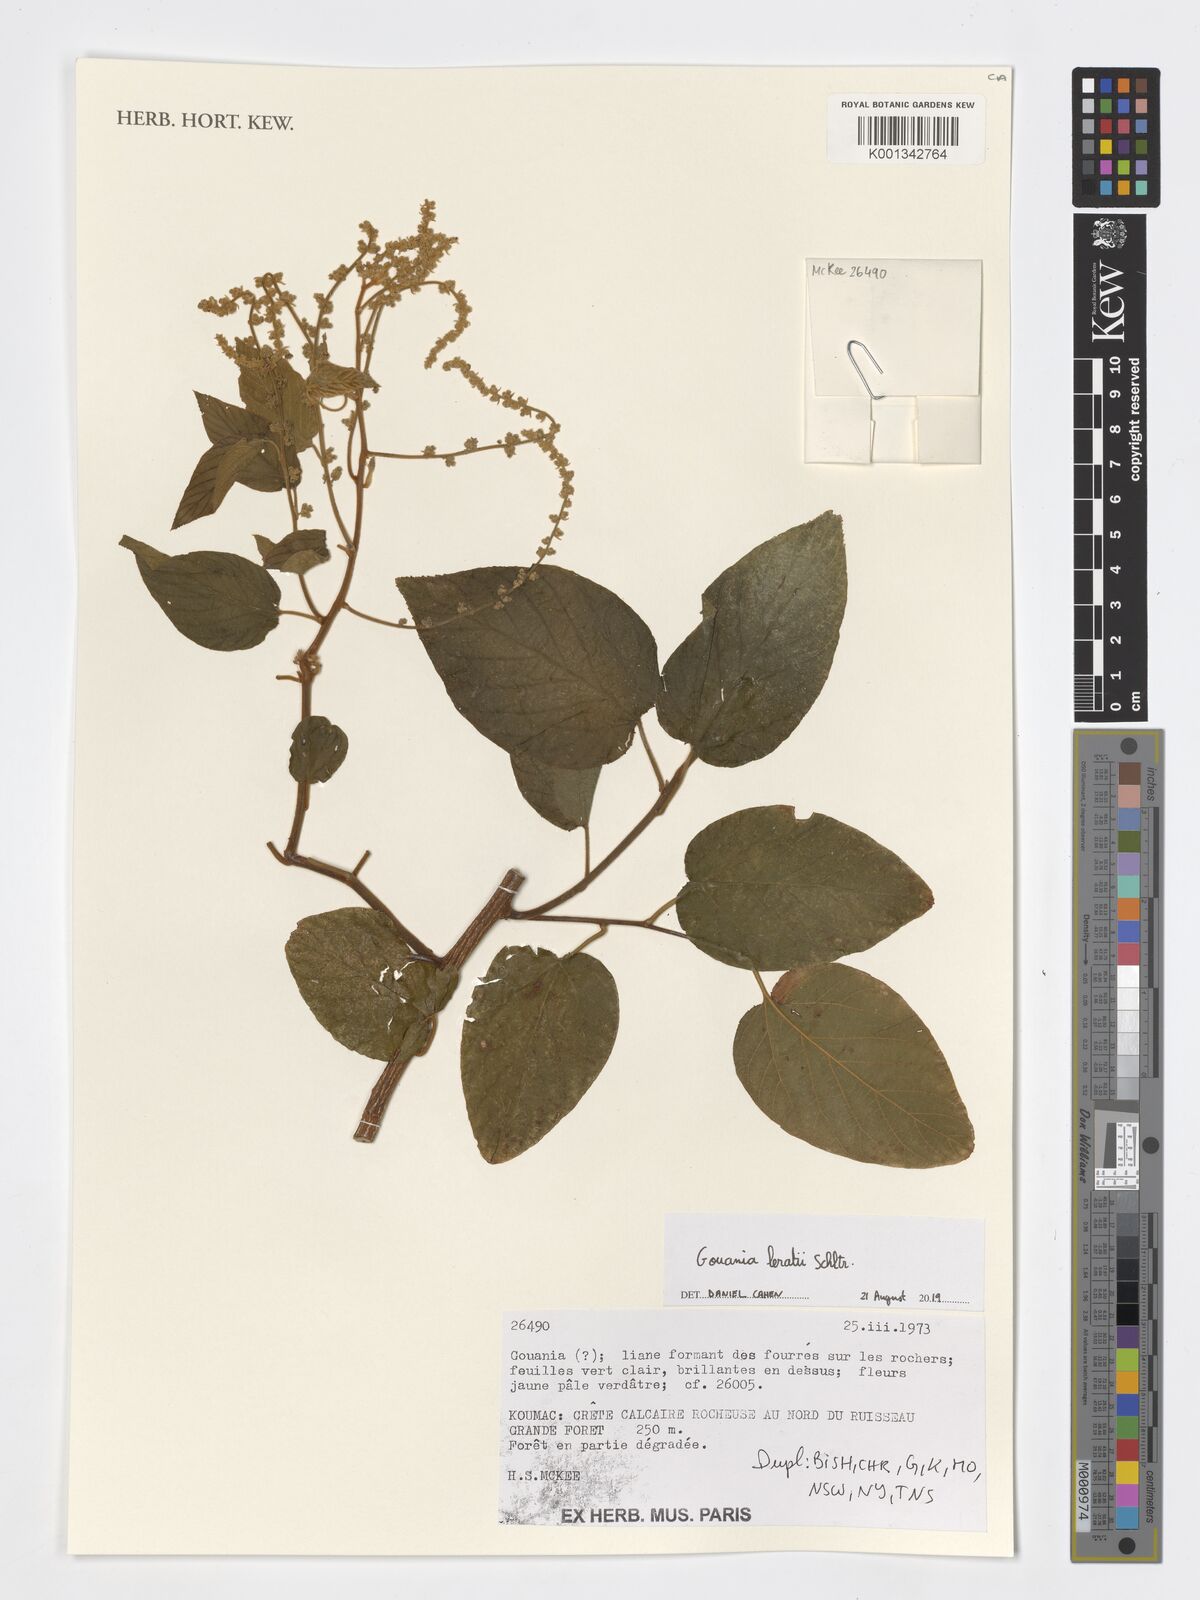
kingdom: Plantae
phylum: Tracheophyta
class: Magnoliopsida
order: Rosales
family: Rhamnaceae
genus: Gouania
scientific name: Gouania leratii
